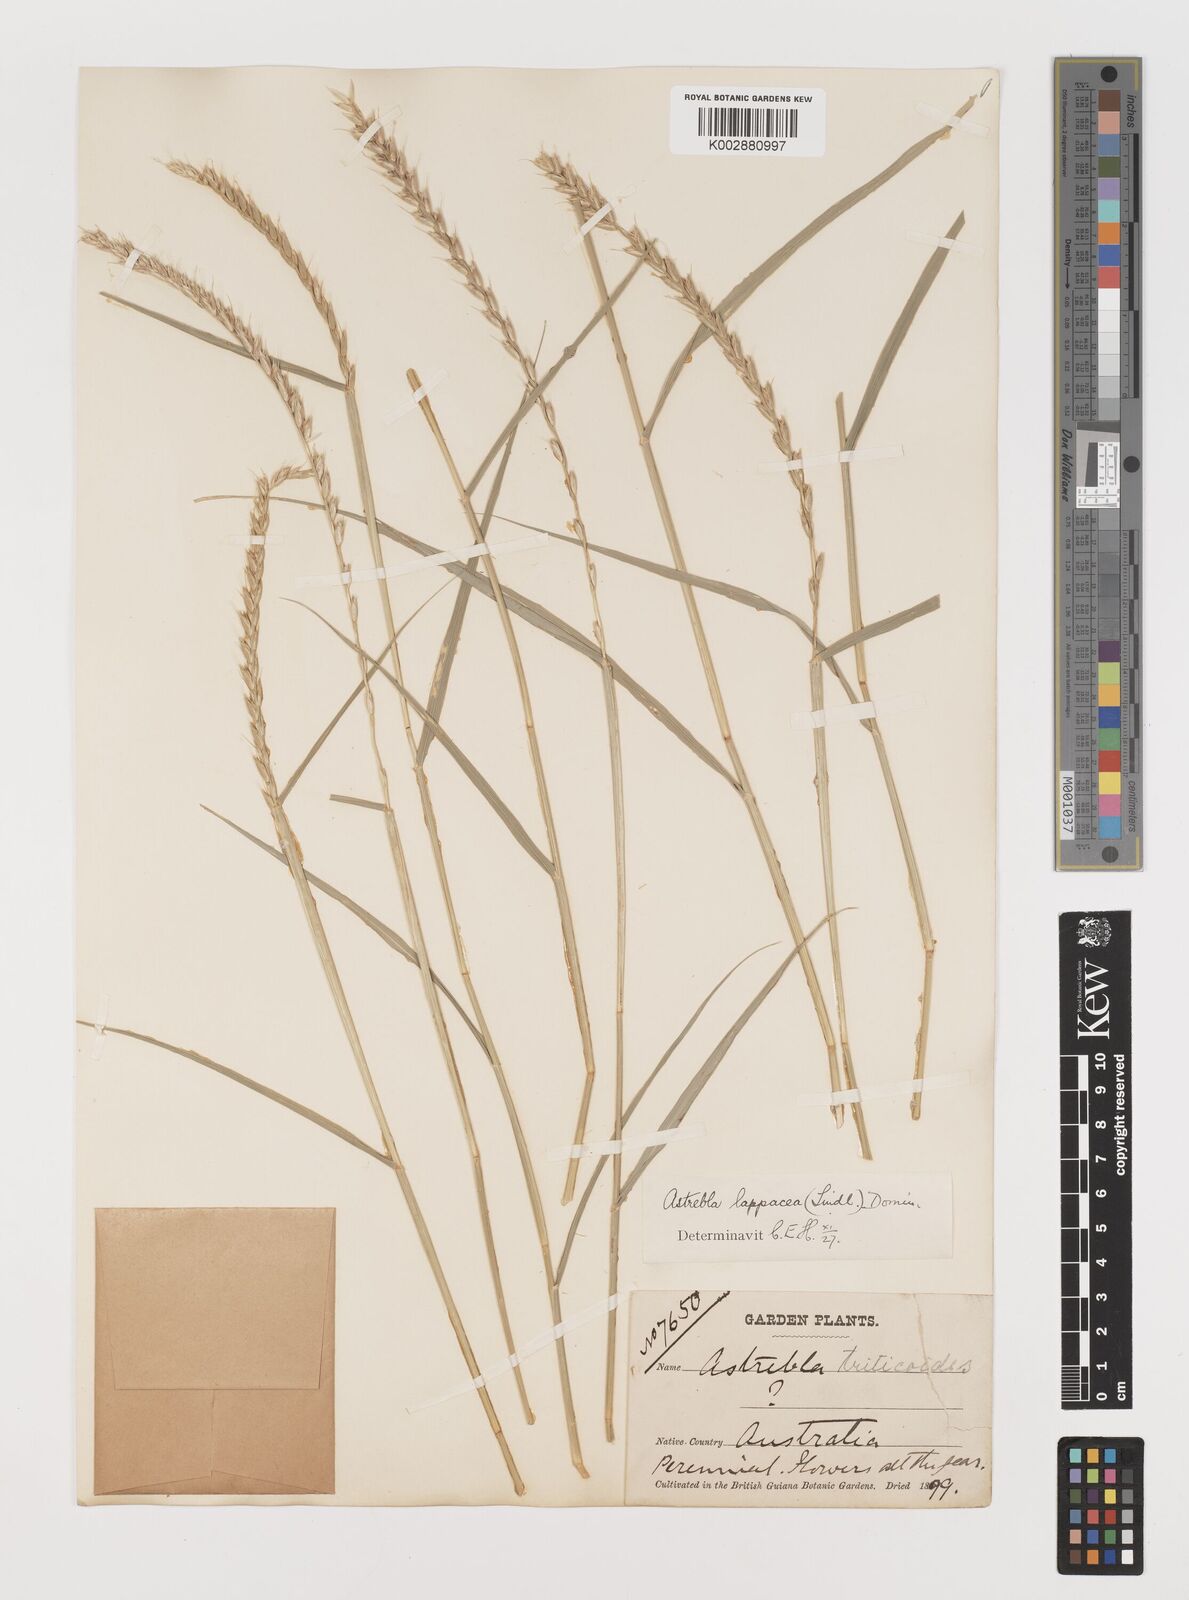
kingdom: Plantae
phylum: Tracheophyta
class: Liliopsida
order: Poales
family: Poaceae
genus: Astrebla
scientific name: Astrebla lappacea
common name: Curly mitchell grass
